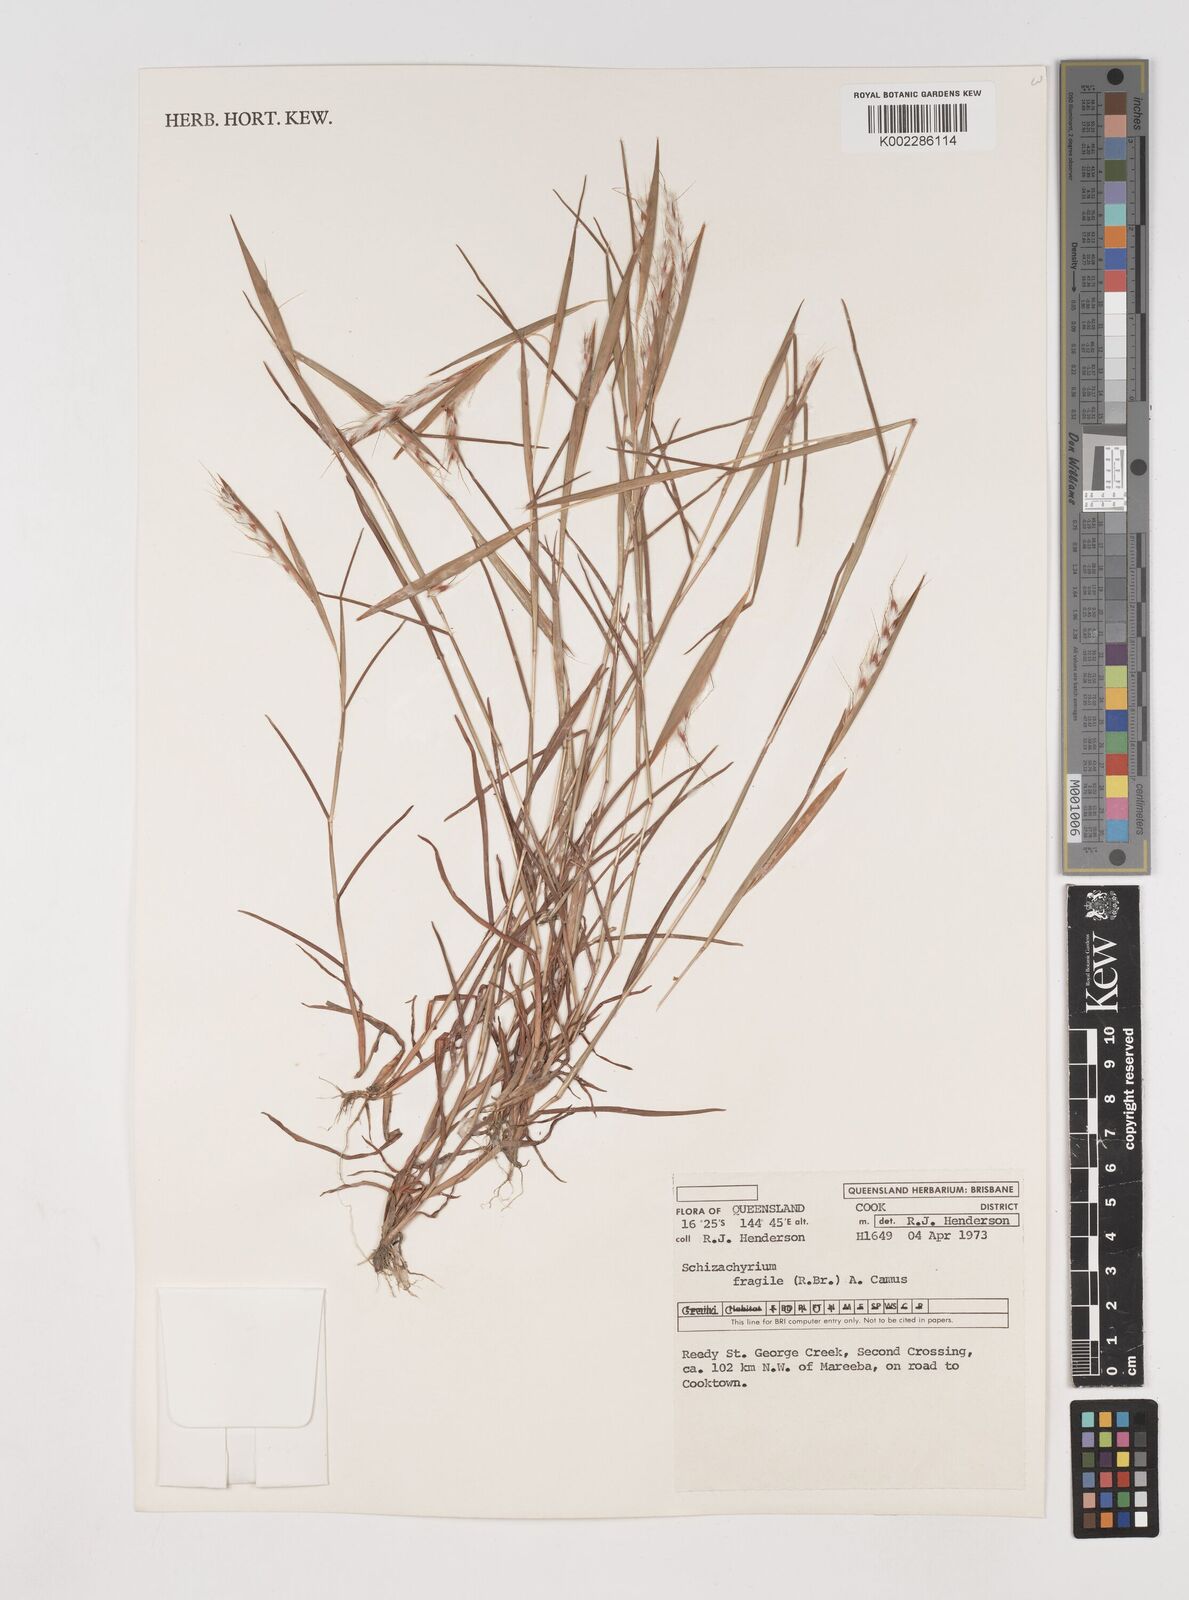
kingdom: Plantae
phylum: Tracheophyta
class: Liliopsida
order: Poales
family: Poaceae
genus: Schizachyrium
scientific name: Schizachyrium fragile
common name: Red spathe grass
